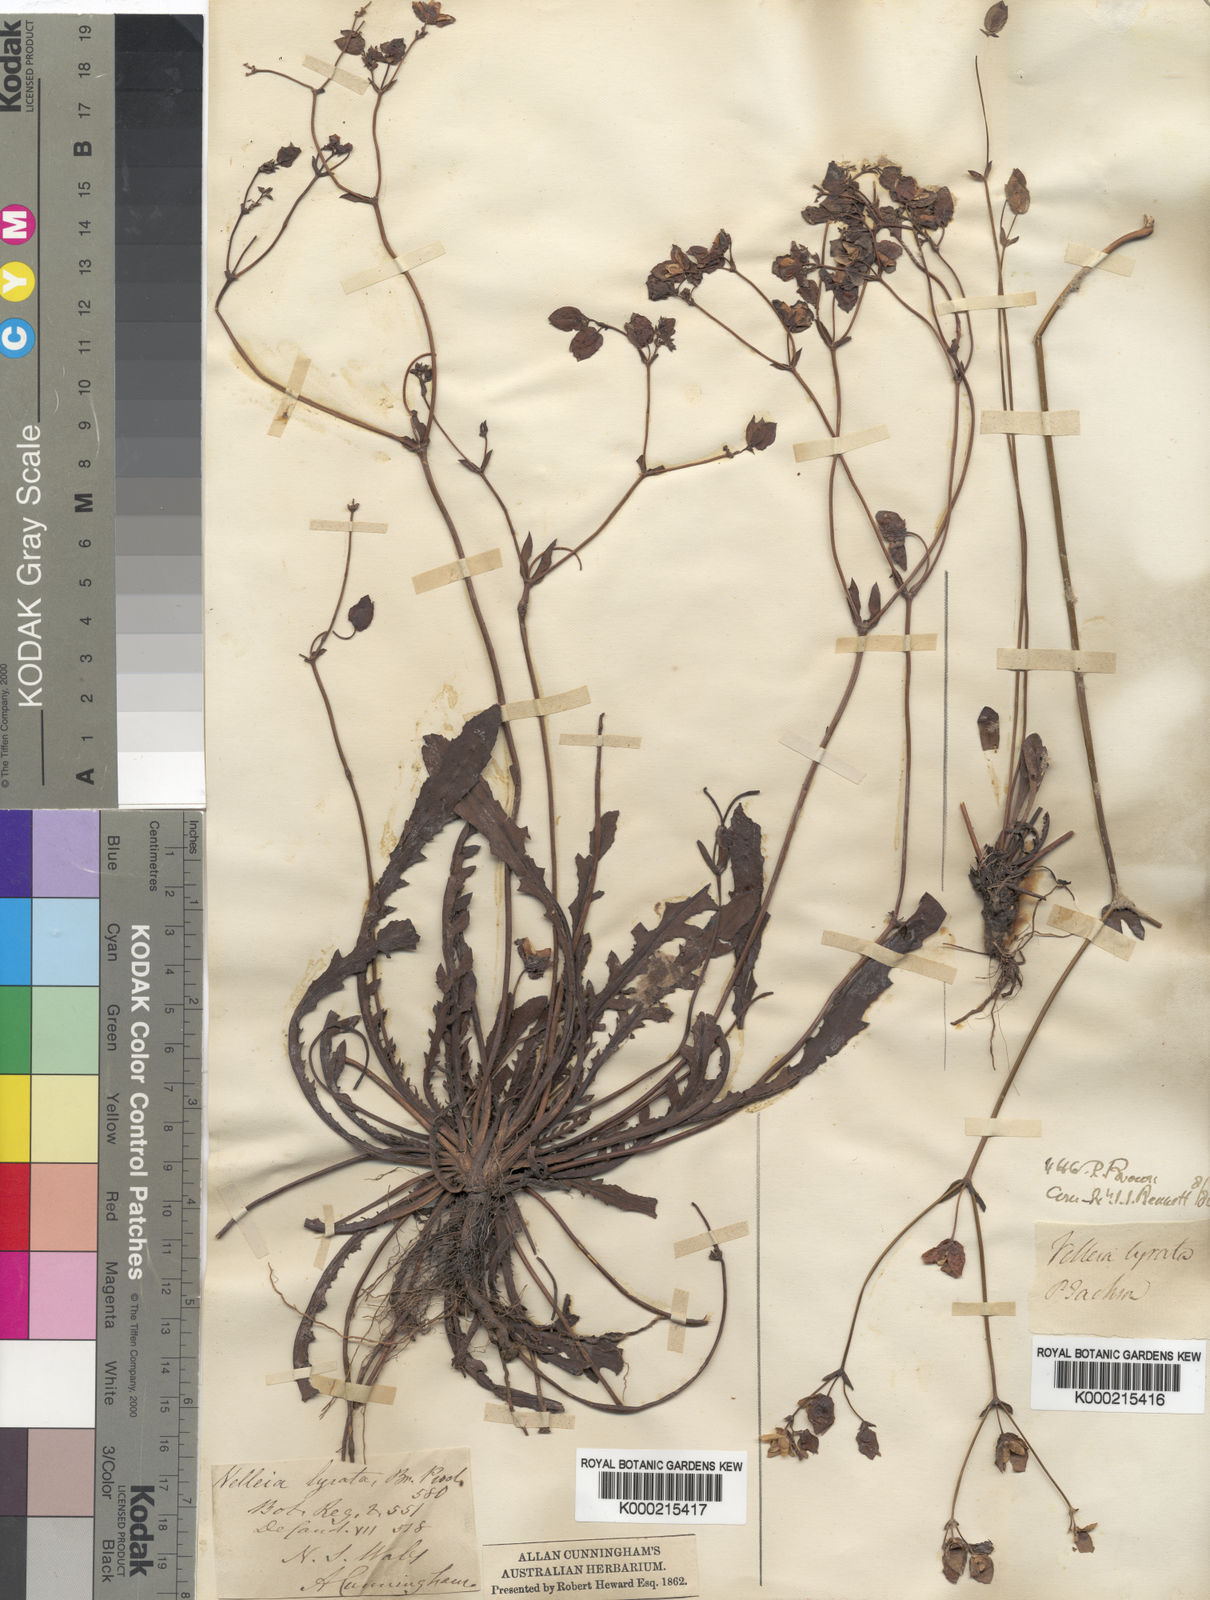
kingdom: Plantae
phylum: Tracheophyta
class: Magnoliopsida
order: Asterales
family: Goodeniaceae
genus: Goodenia
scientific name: Goodenia caroliniana
